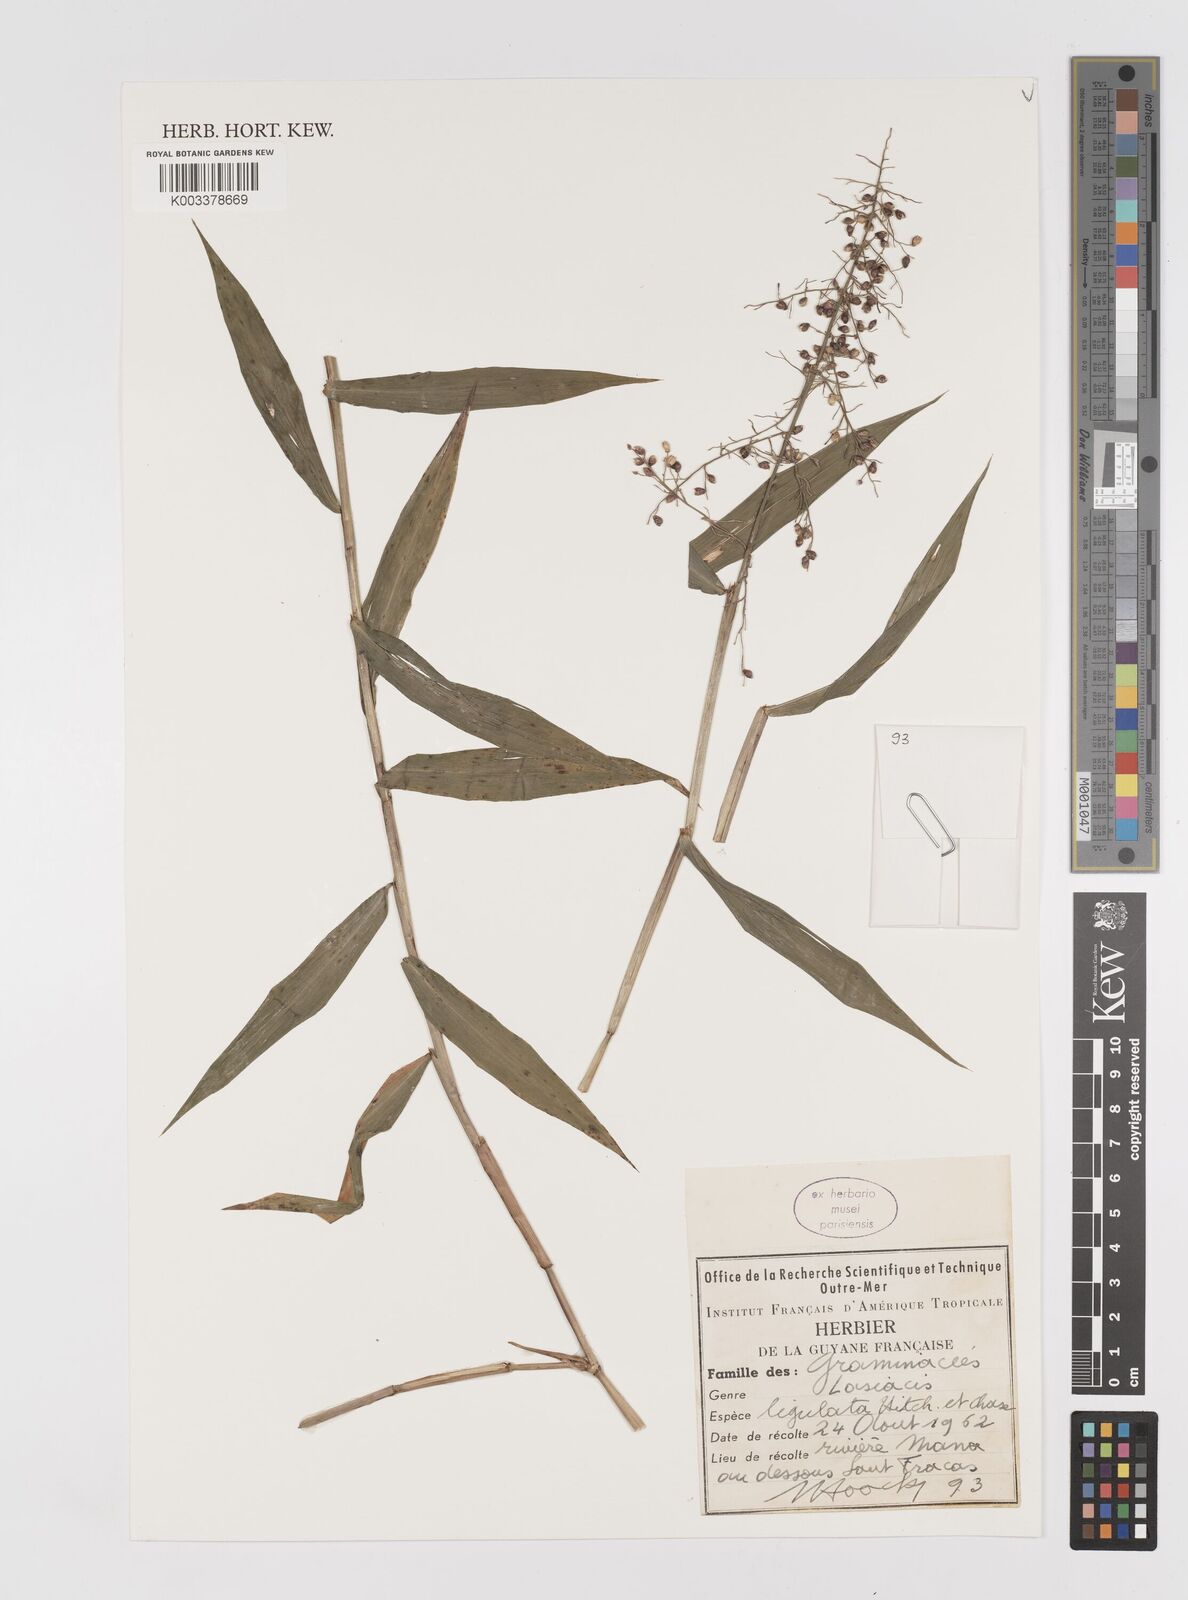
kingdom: Plantae
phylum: Tracheophyta
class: Liliopsida
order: Poales
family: Poaceae
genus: Lasiacis
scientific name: Lasiacis ligulata
